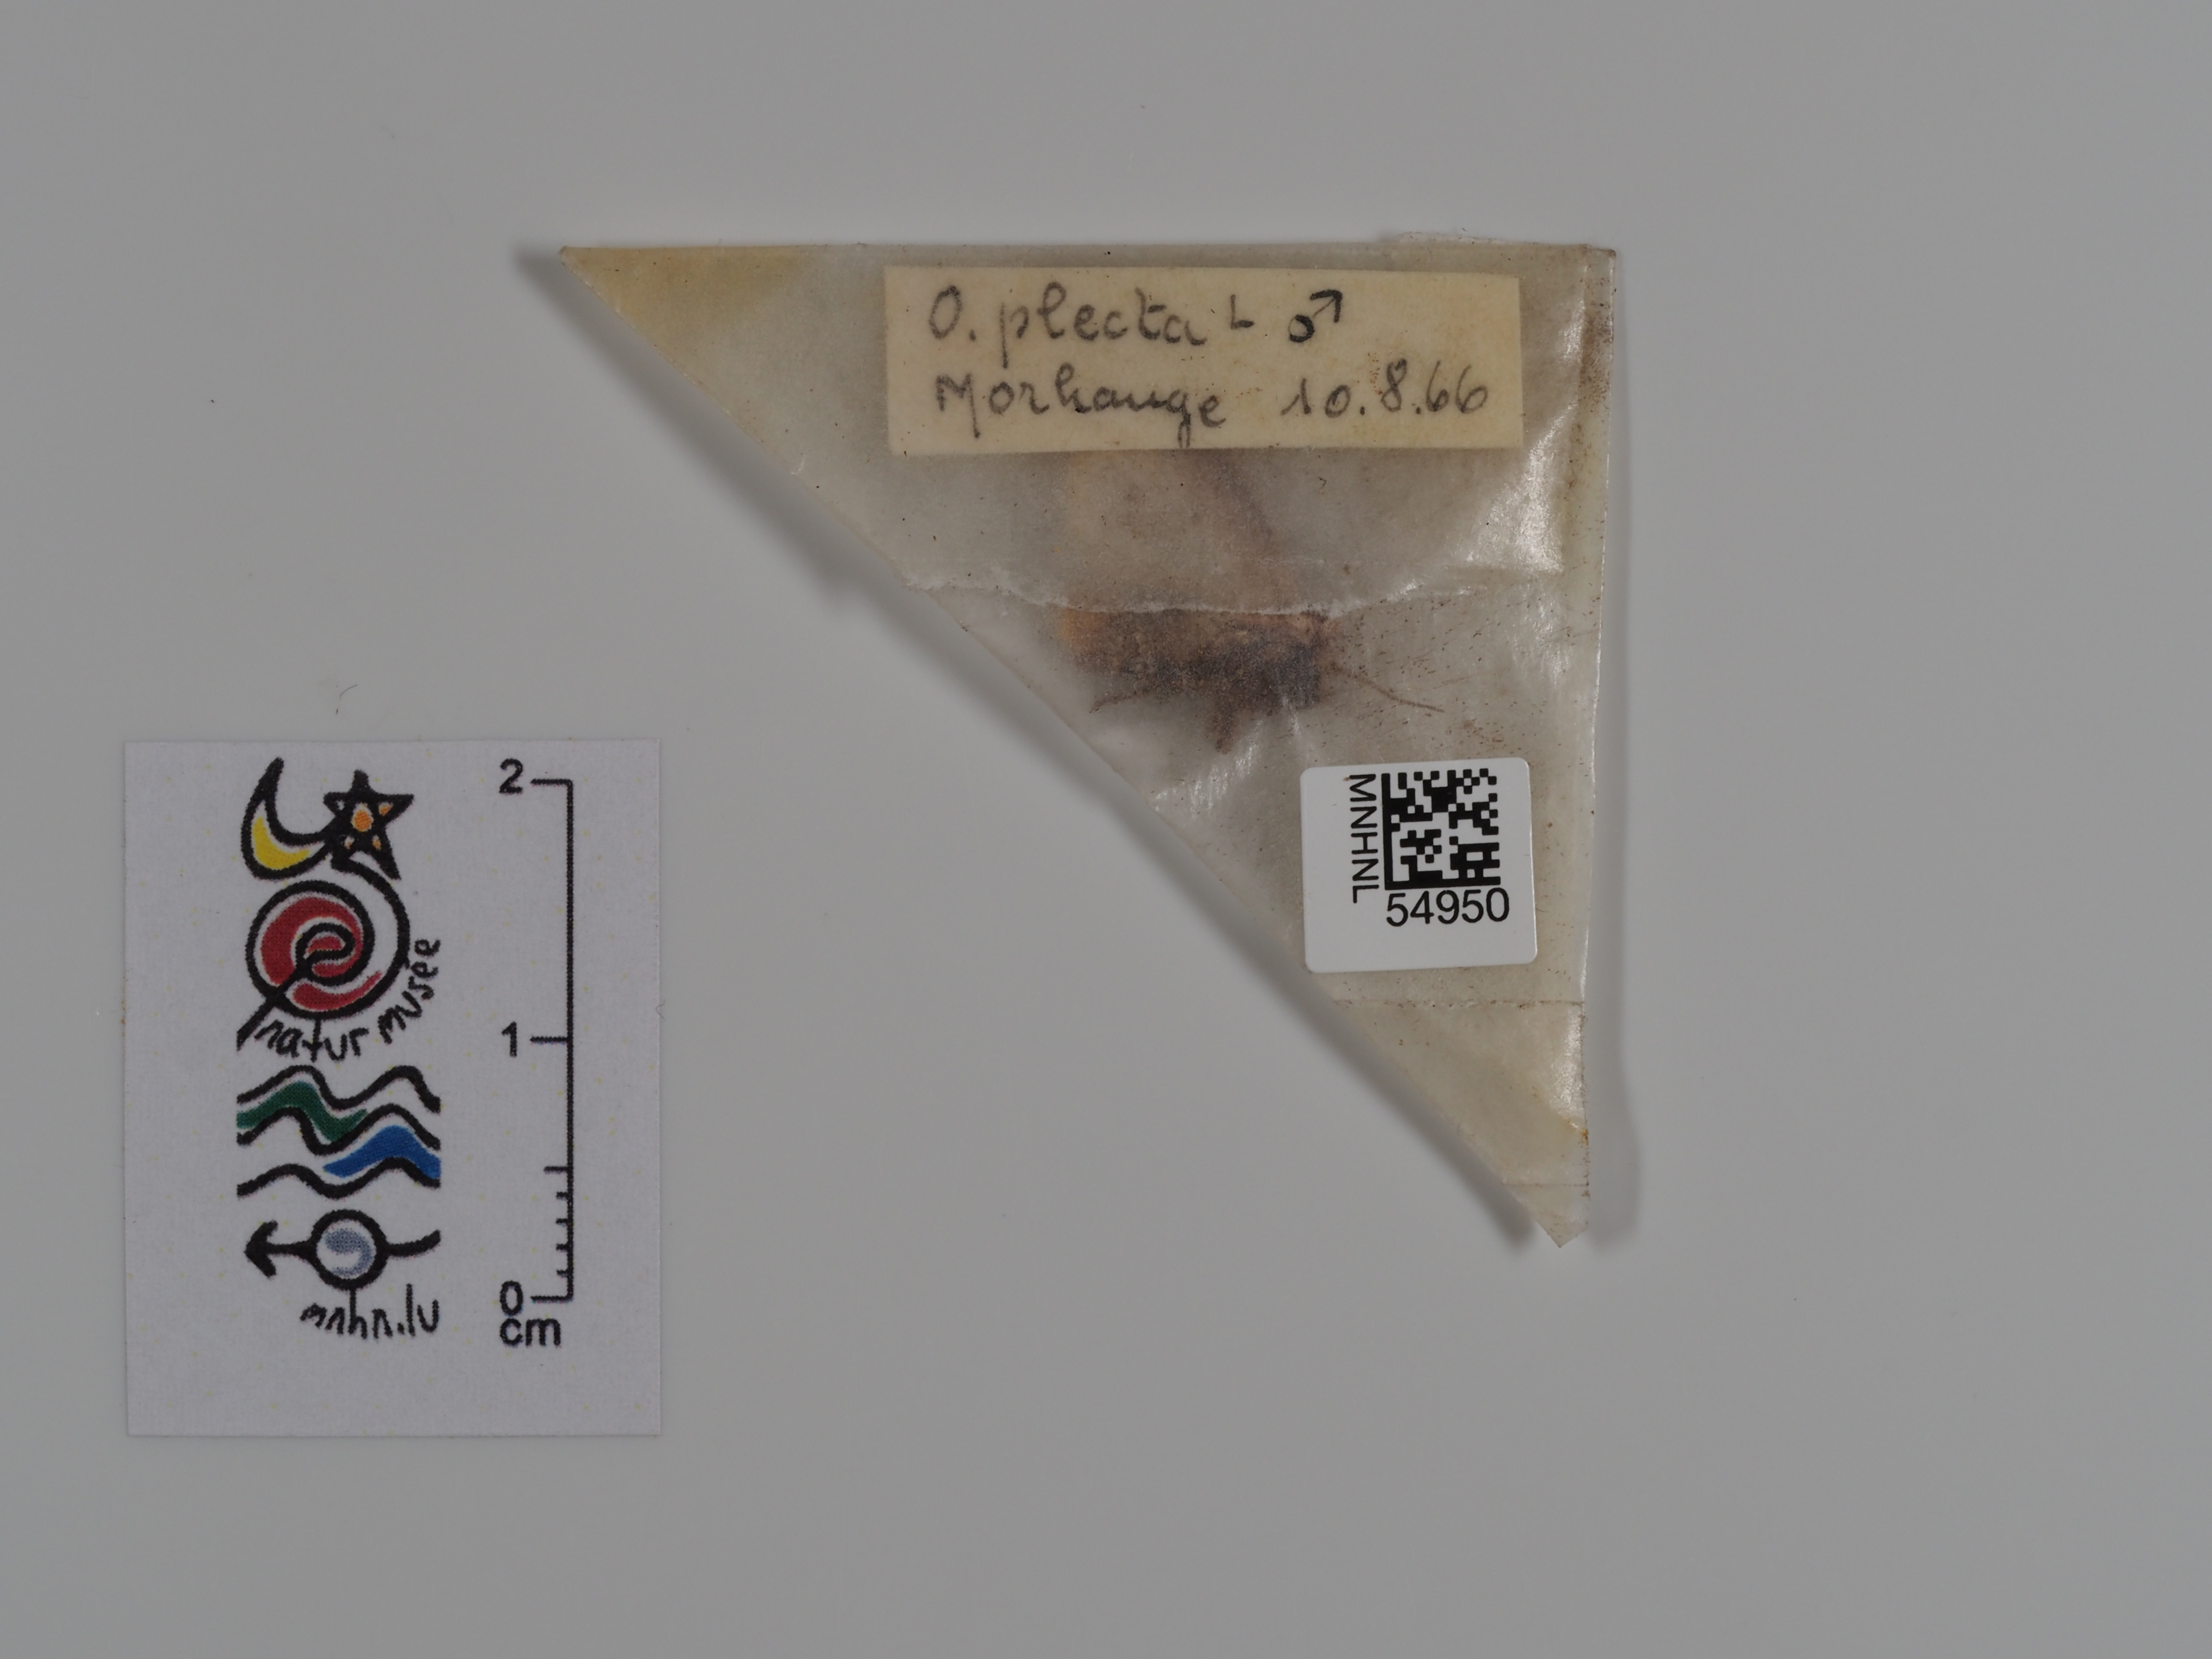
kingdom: Animalia
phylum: Arthropoda
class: Insecta
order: Lepidoptera
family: Noctuidae
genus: Ochropleura
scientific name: Ochropleura plecta
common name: Flame shoulder
